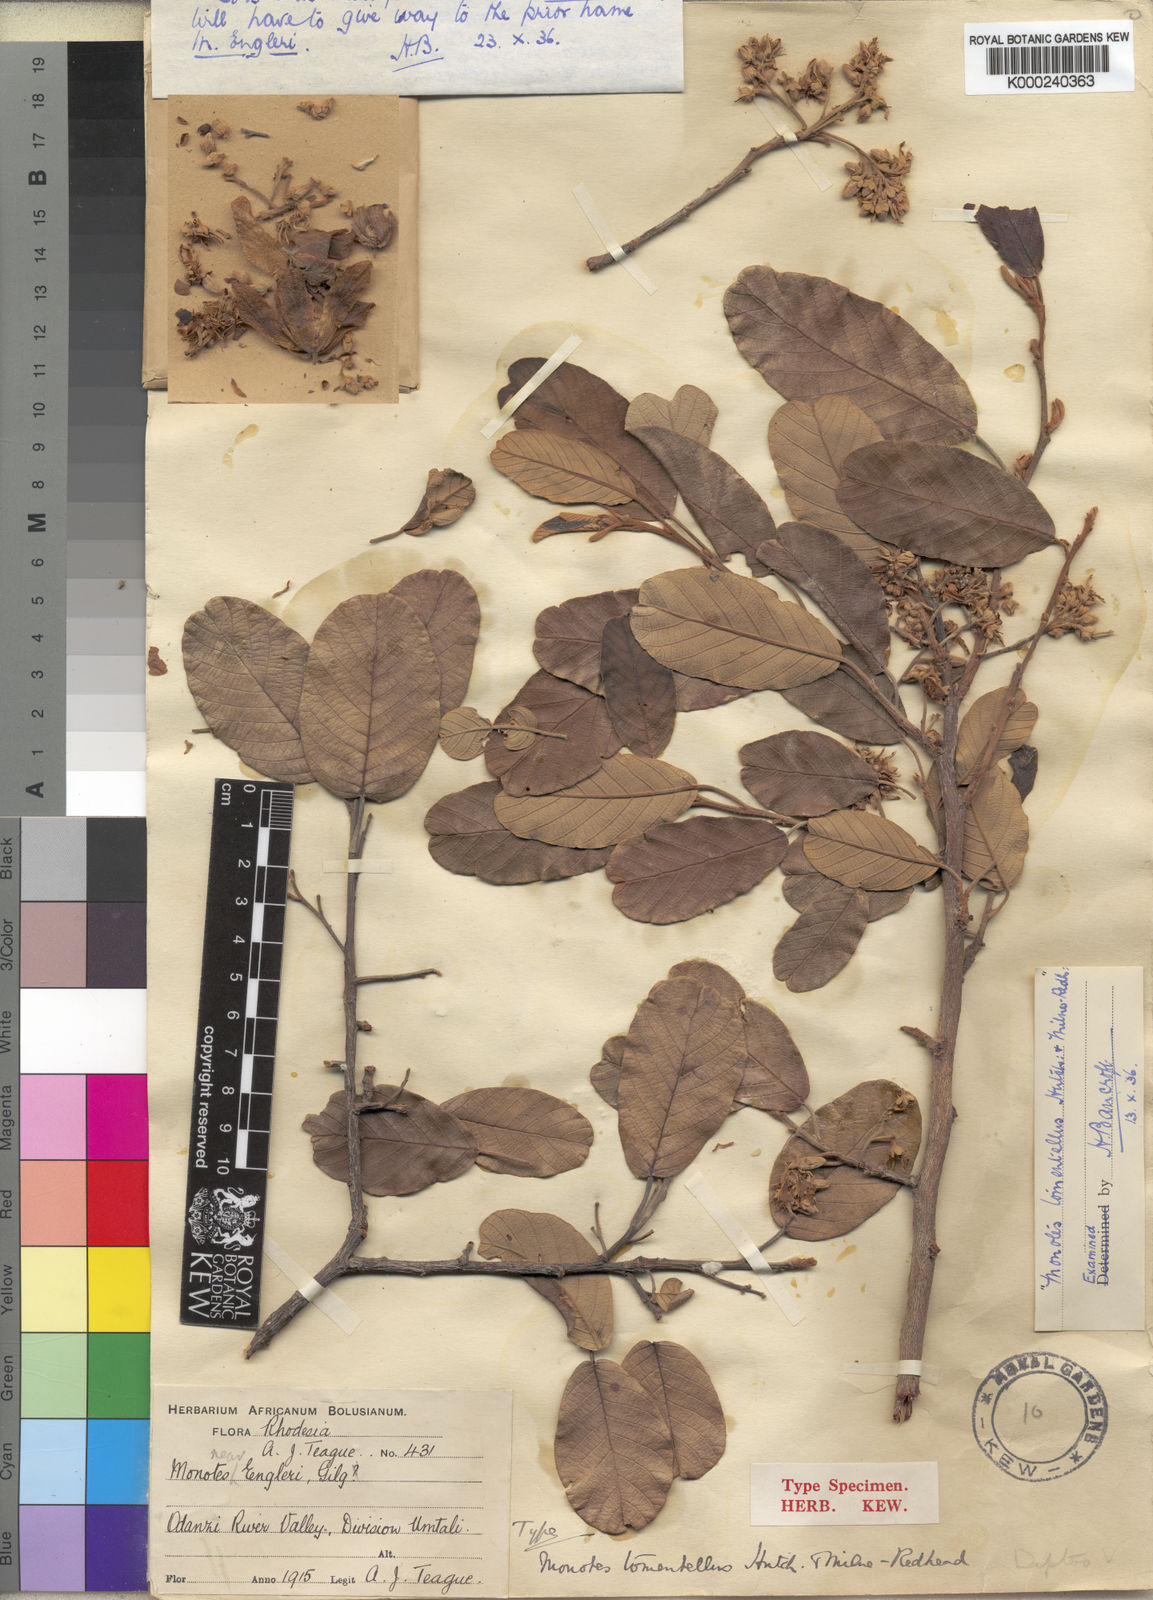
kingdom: Plantae
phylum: Tracheophyta
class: Magnoliopsida
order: Malvales
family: Dipterocarpaceae
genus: Monotes
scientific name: Monotes engleri
